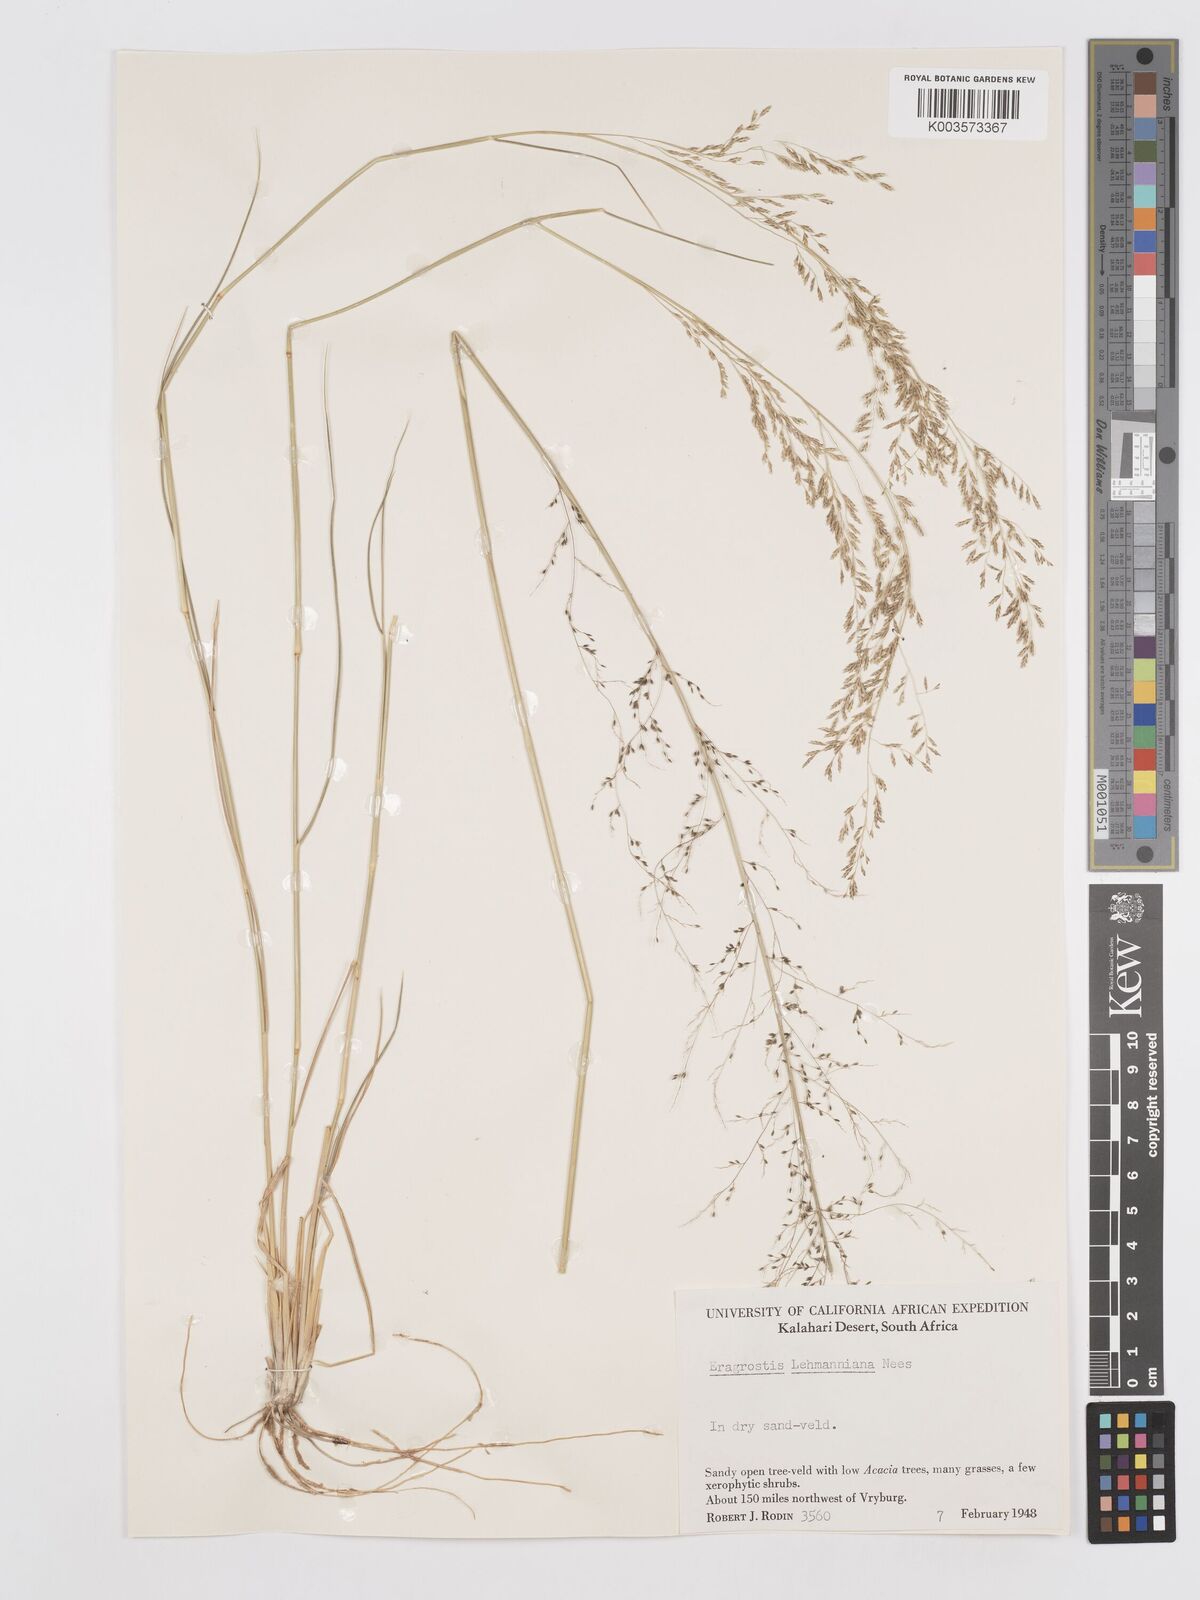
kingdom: Plantae
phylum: Tracheophyta
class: Liliopsida
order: Poales
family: Poaceae
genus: Eragrostis
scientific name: Eragrostis lehmanniana
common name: Lehmann lovegrass
